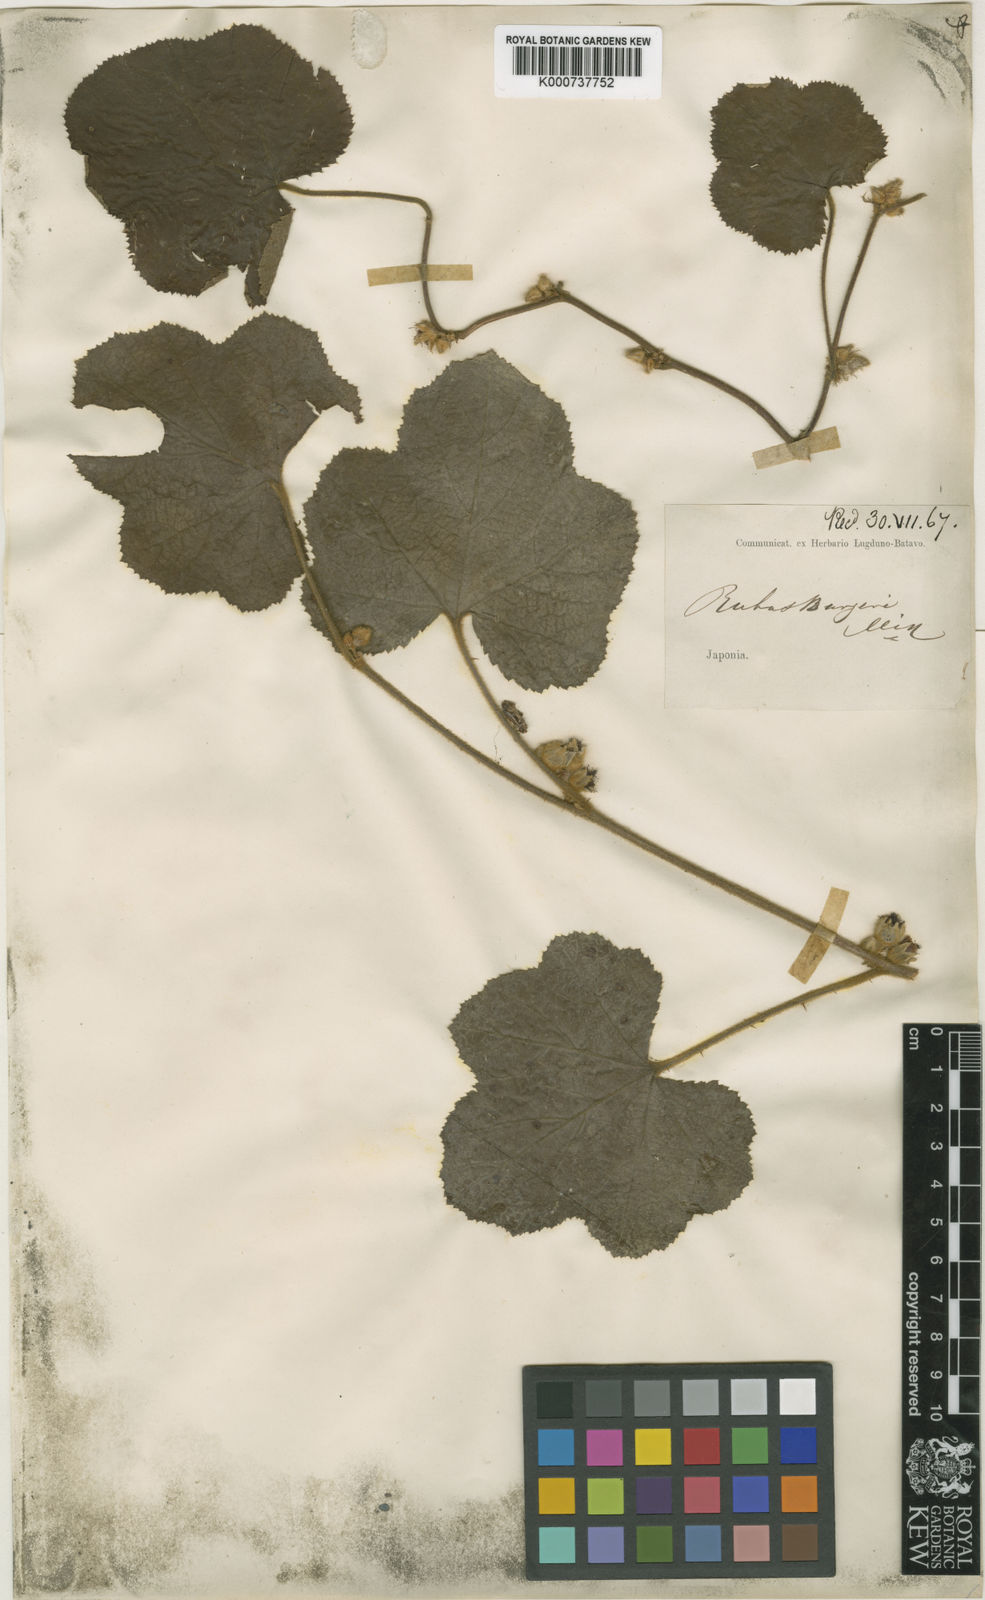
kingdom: Plantae
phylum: Tracheophyta
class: Magnoliopsida
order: Rosales
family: Rosaceae
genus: Rubus
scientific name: Rubus buergeri
